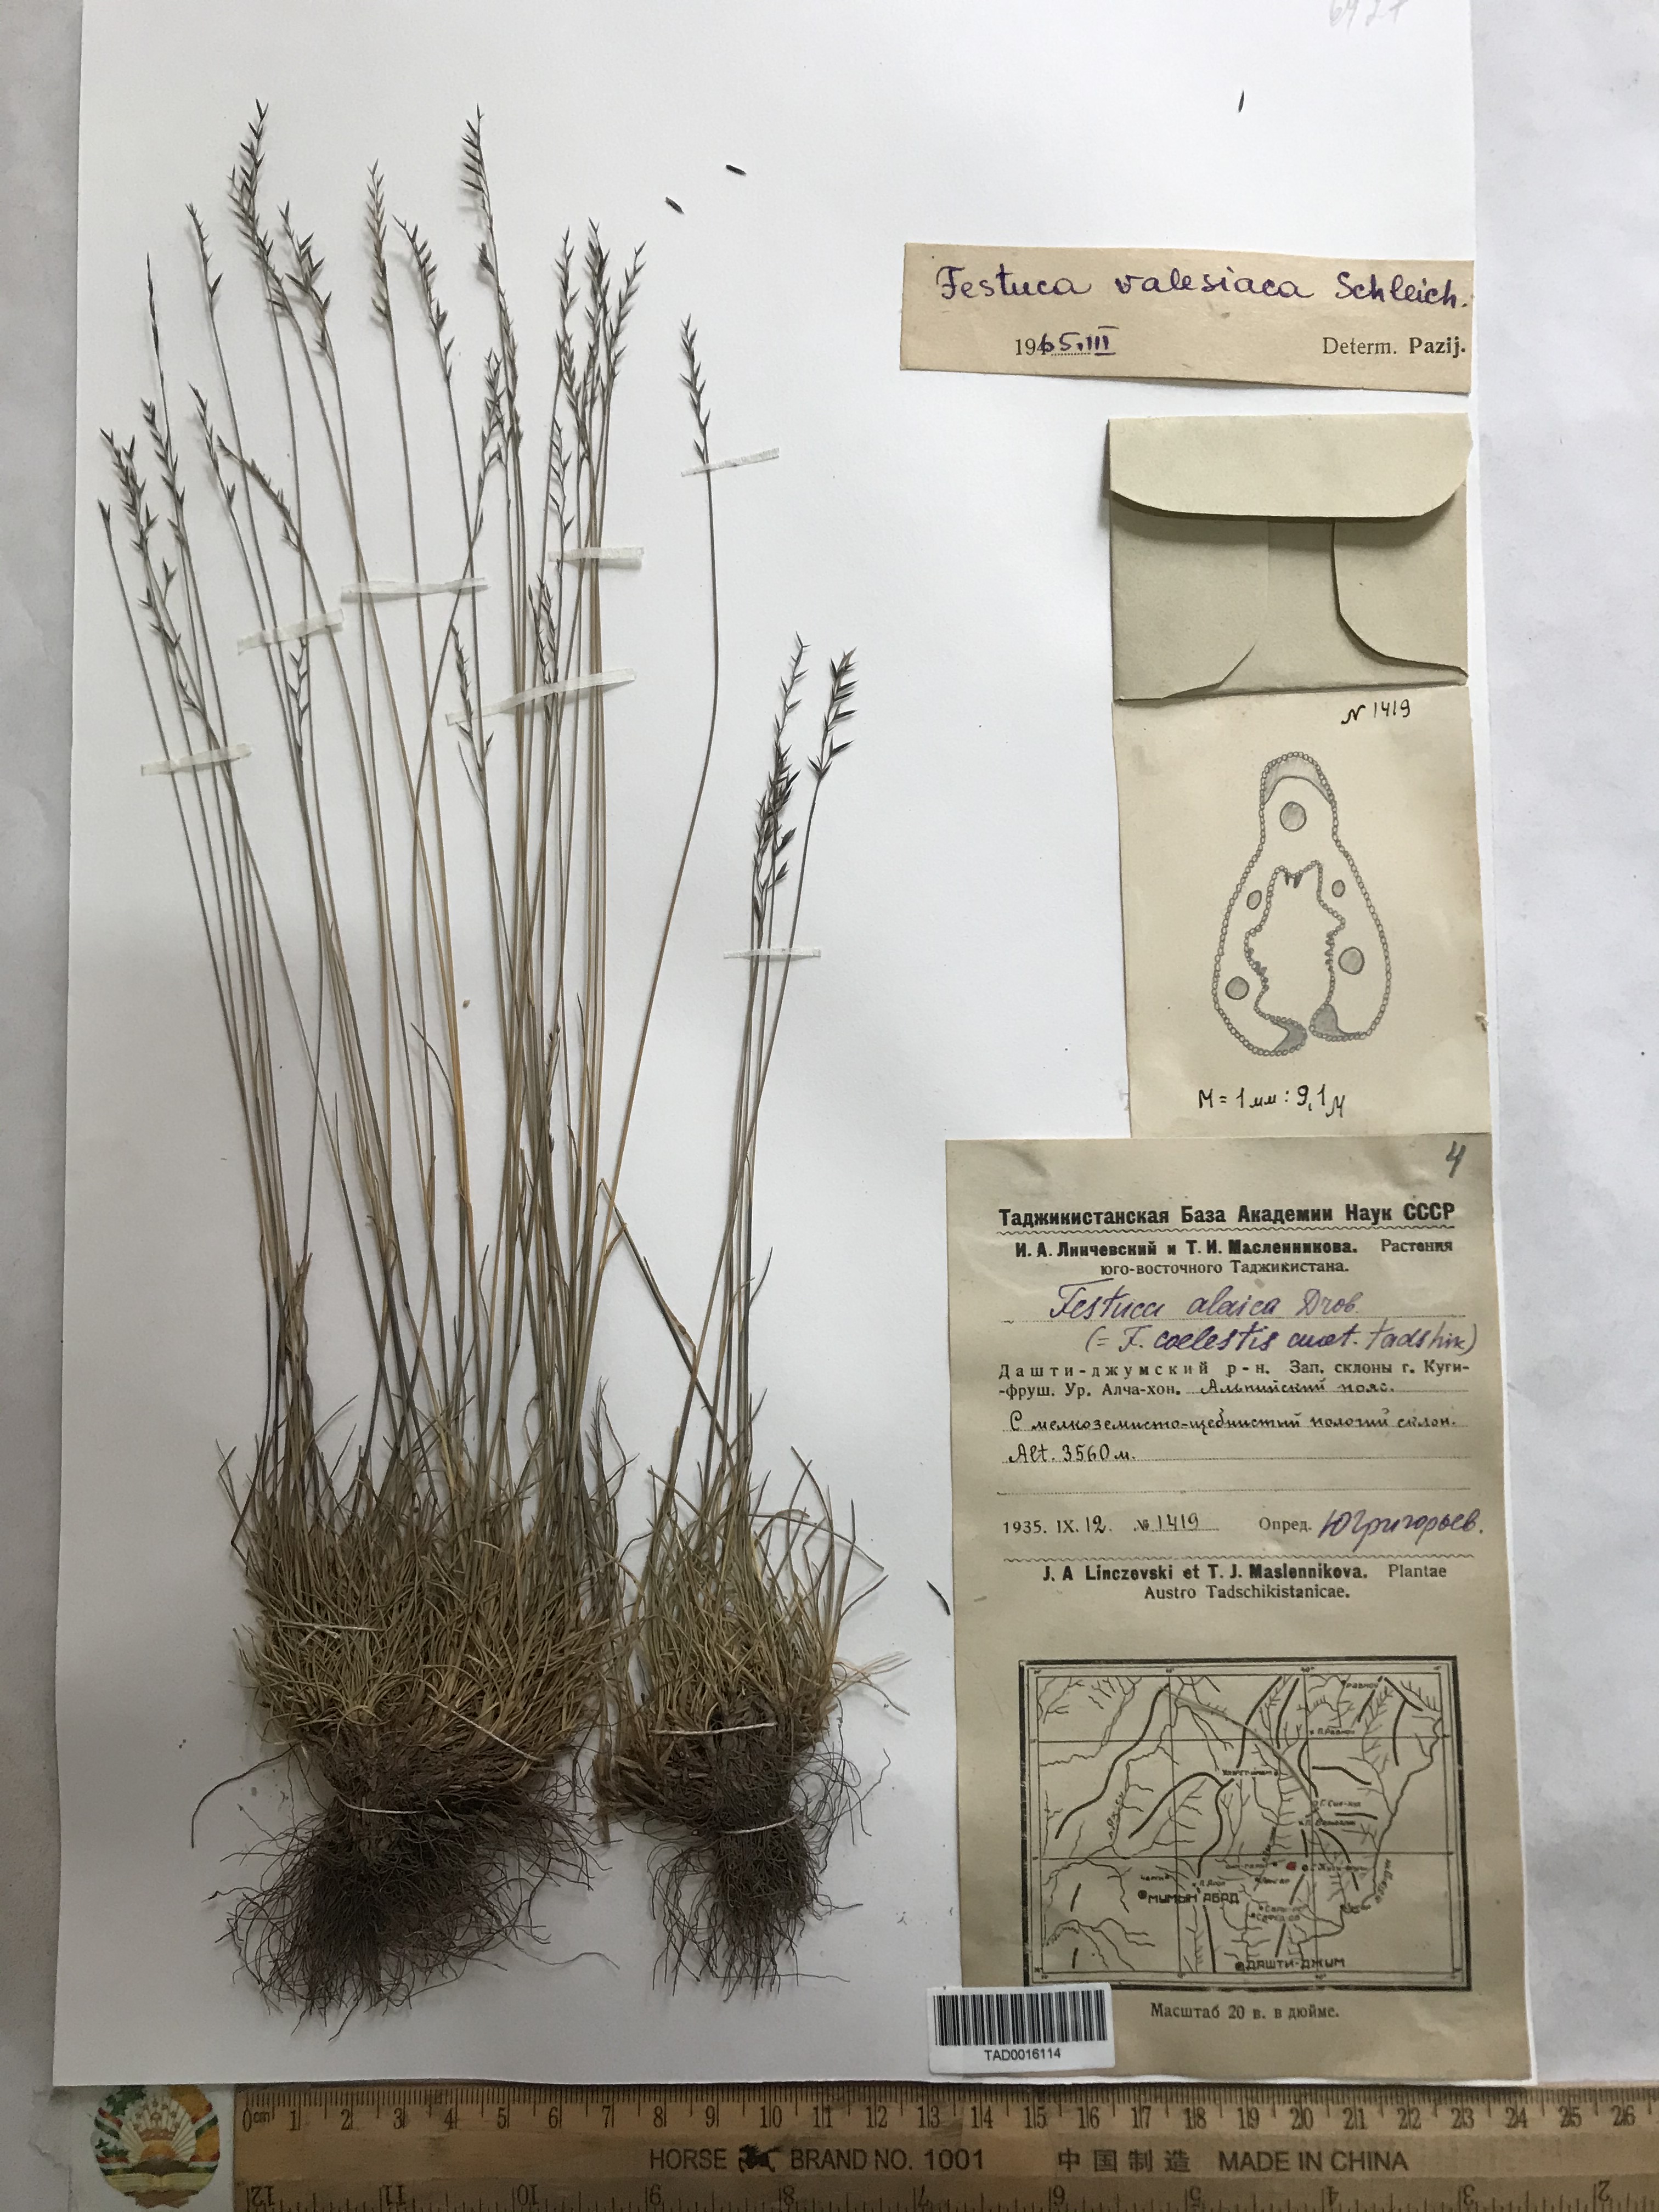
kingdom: Plantae
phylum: Tracheophyta
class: Liliopsida
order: Poales
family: Poaceae
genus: Festuca
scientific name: Festuca valesiaca
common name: Volga fescue
